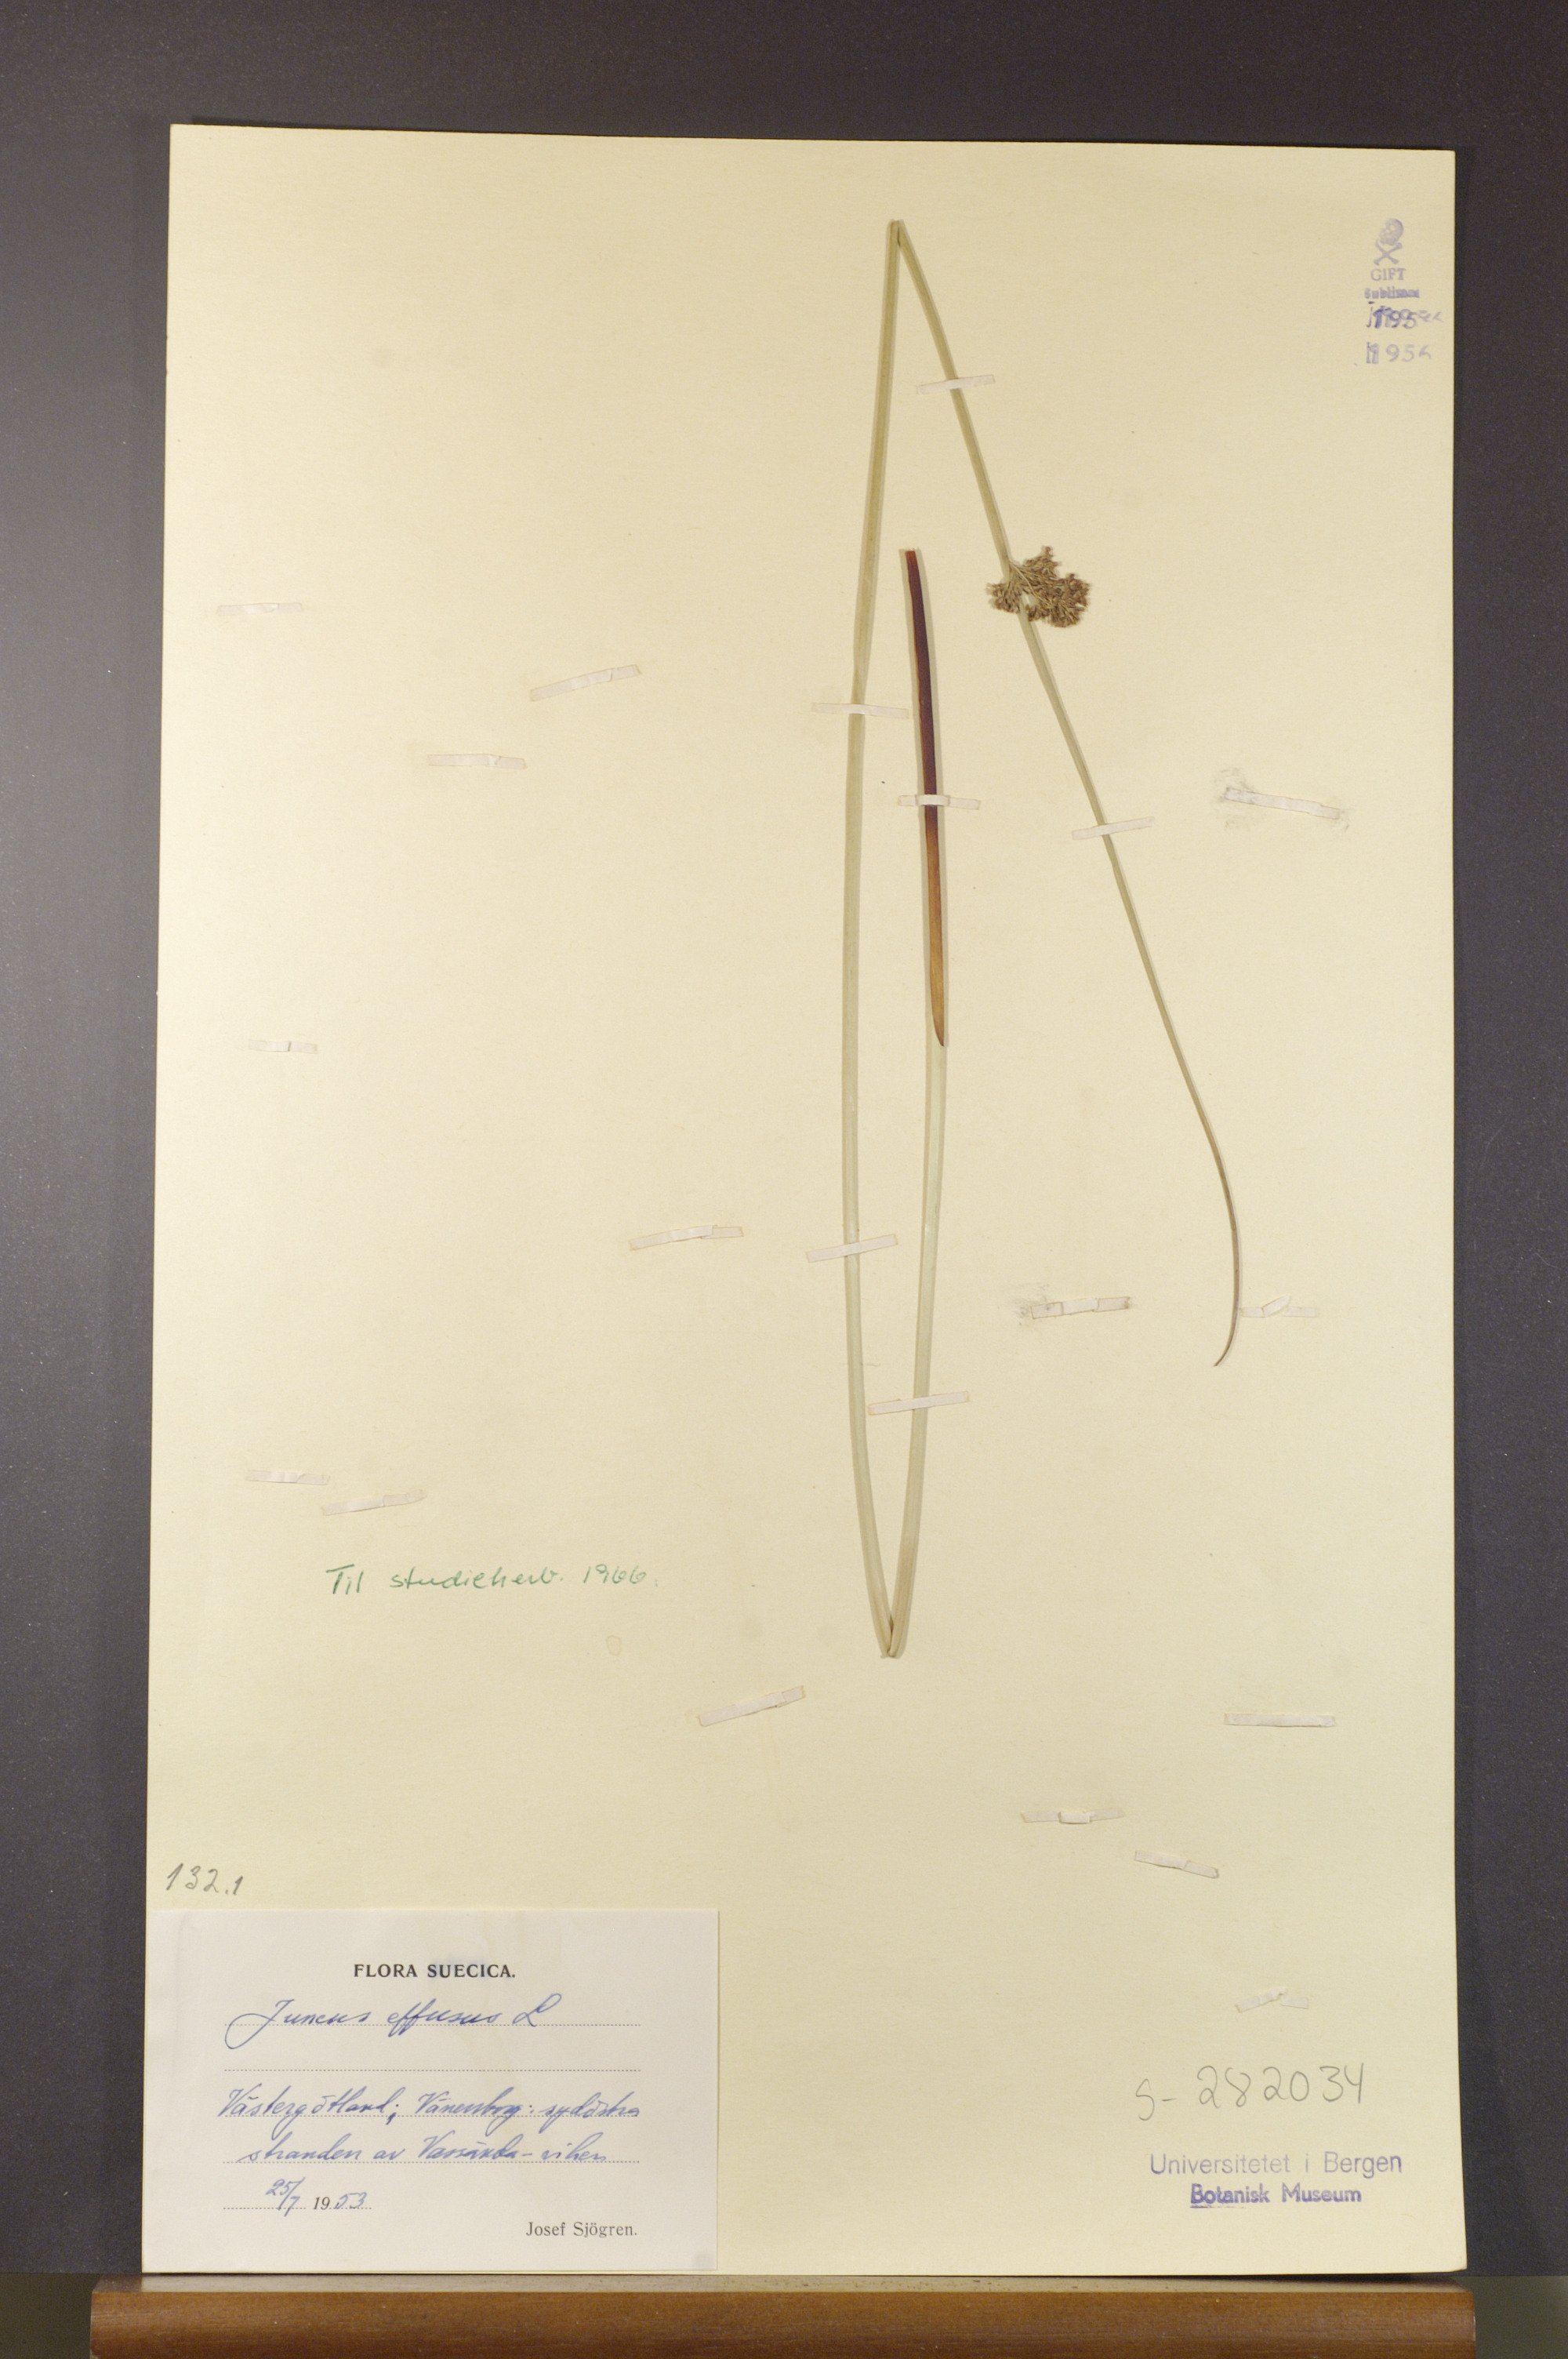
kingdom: Plantae
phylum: Tracheophyta
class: Liliopsida
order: Poales
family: Juncaceae
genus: Juncus
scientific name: Juncus effusus
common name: Soft rush
